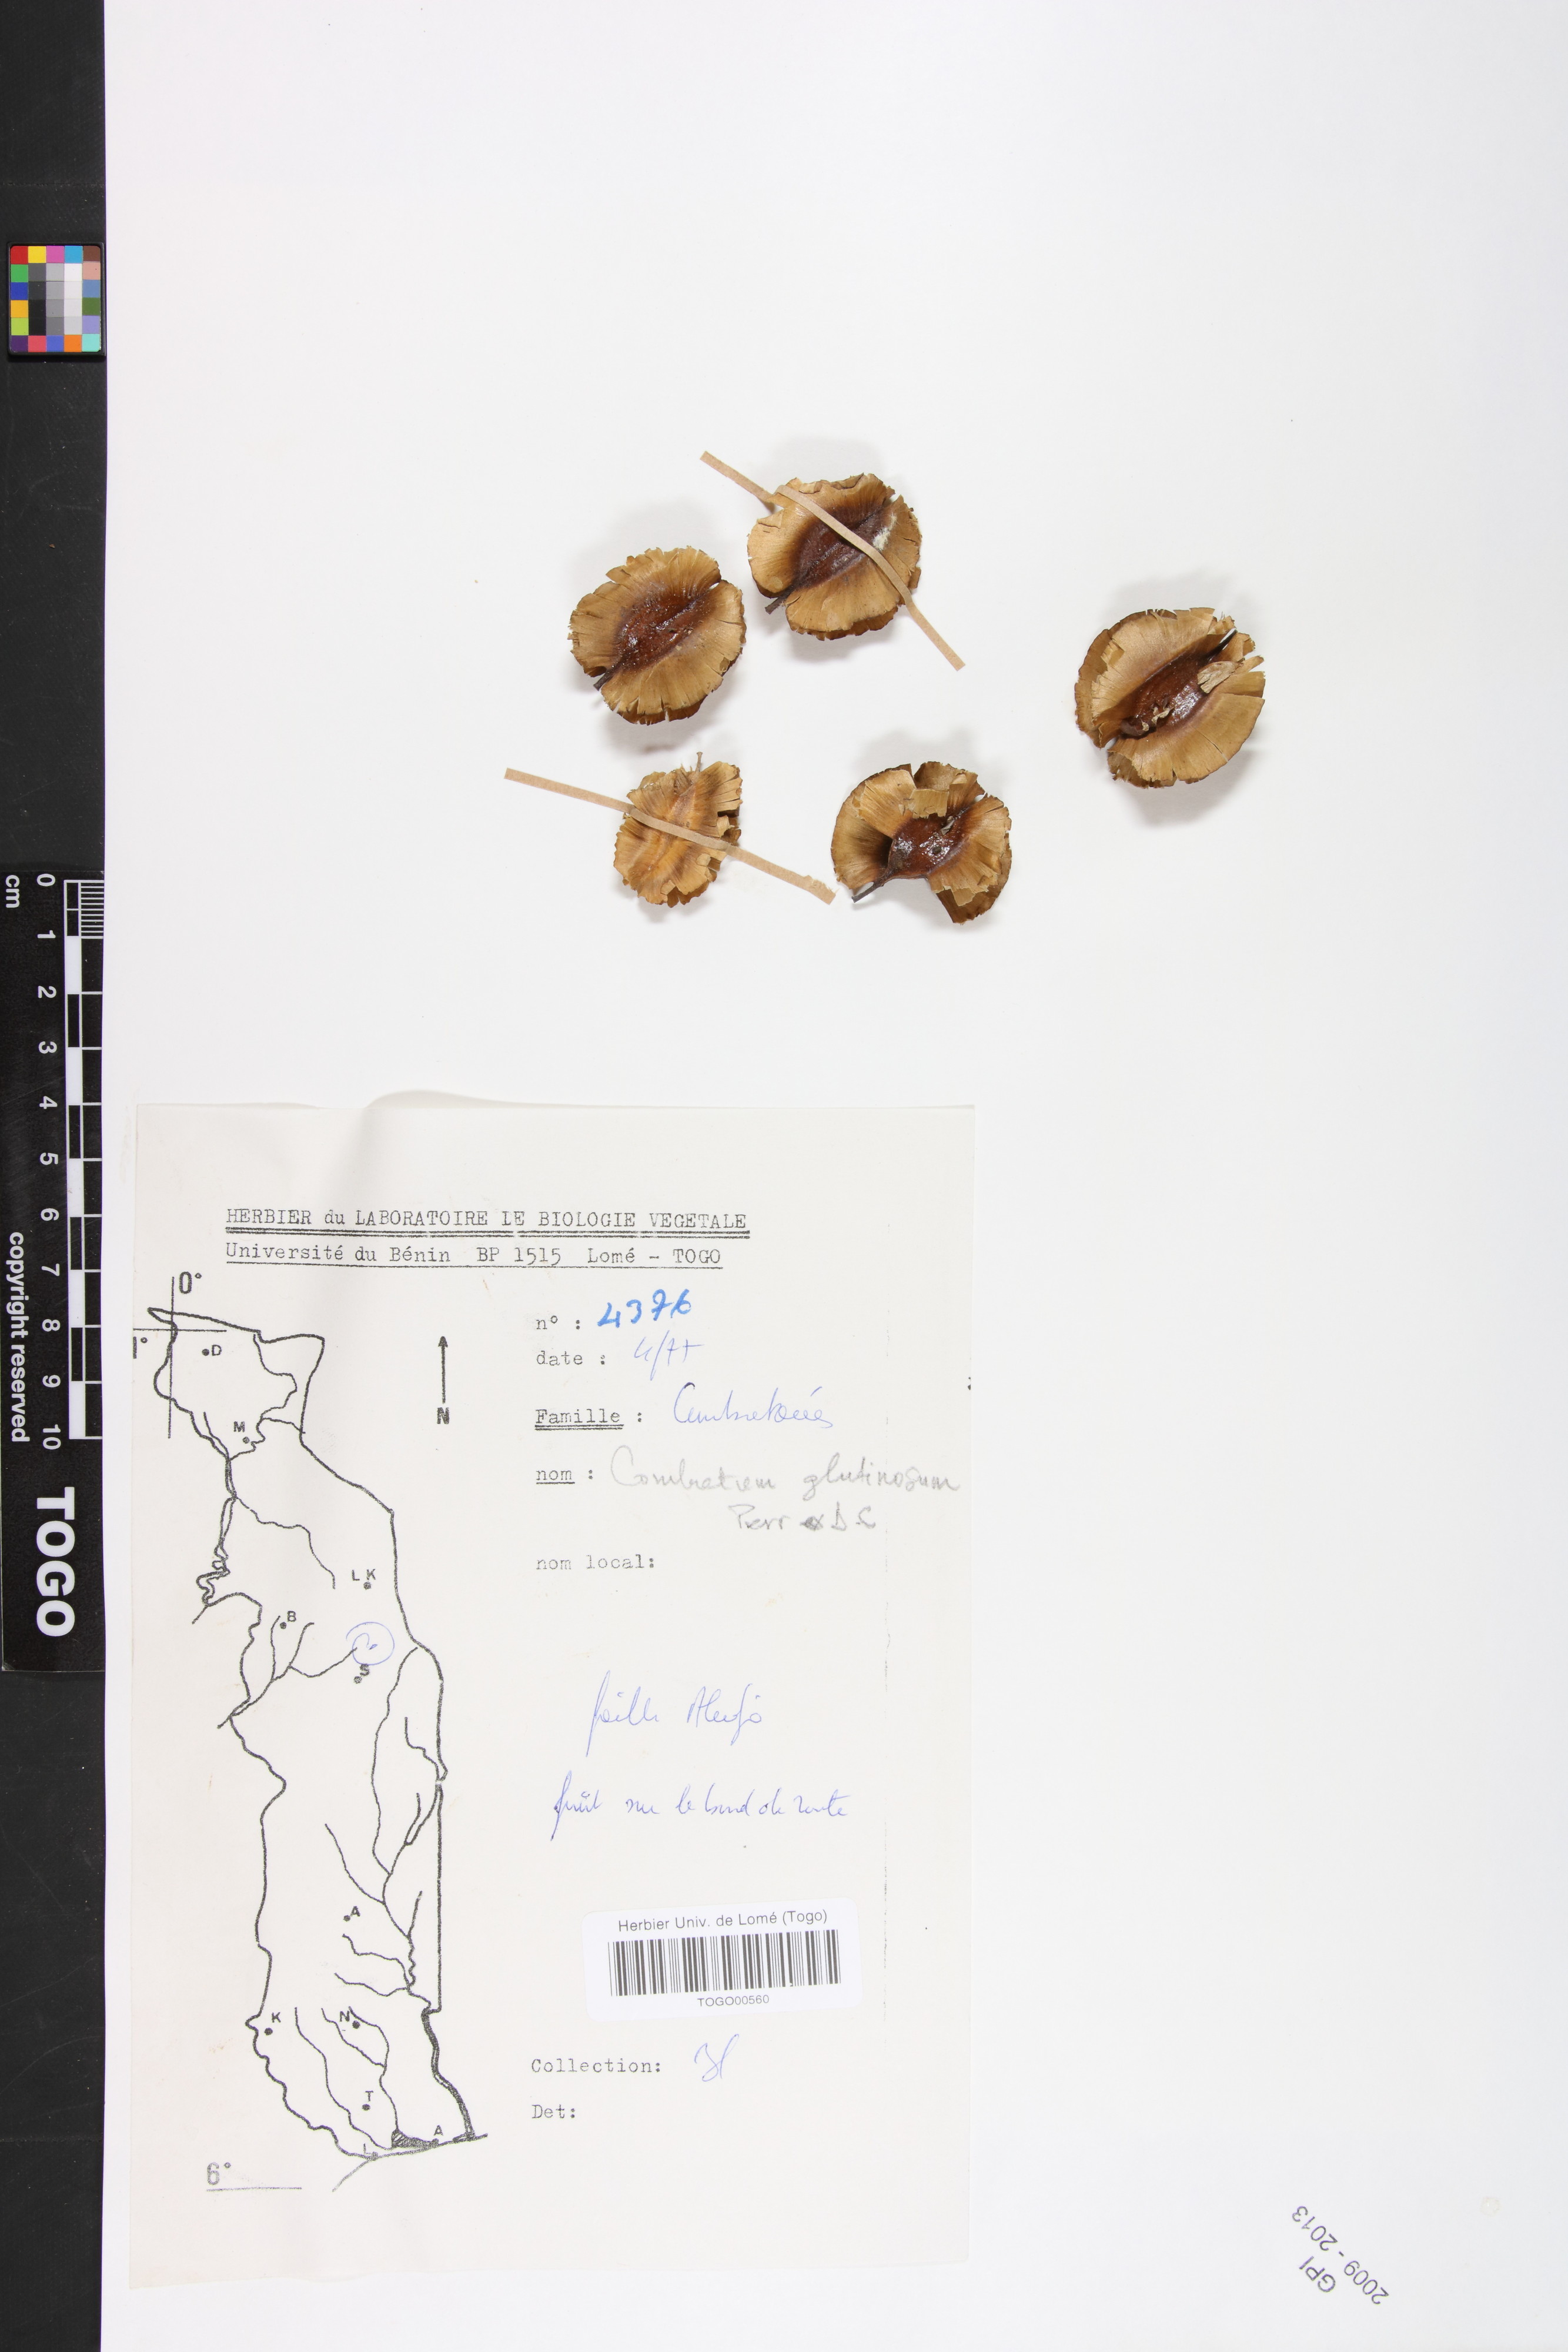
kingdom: Plantae
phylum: Tracheophyta
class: Magnoliopsida
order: Myrtales
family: Combretaceae
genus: Combretum
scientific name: Combretum glutinosum
